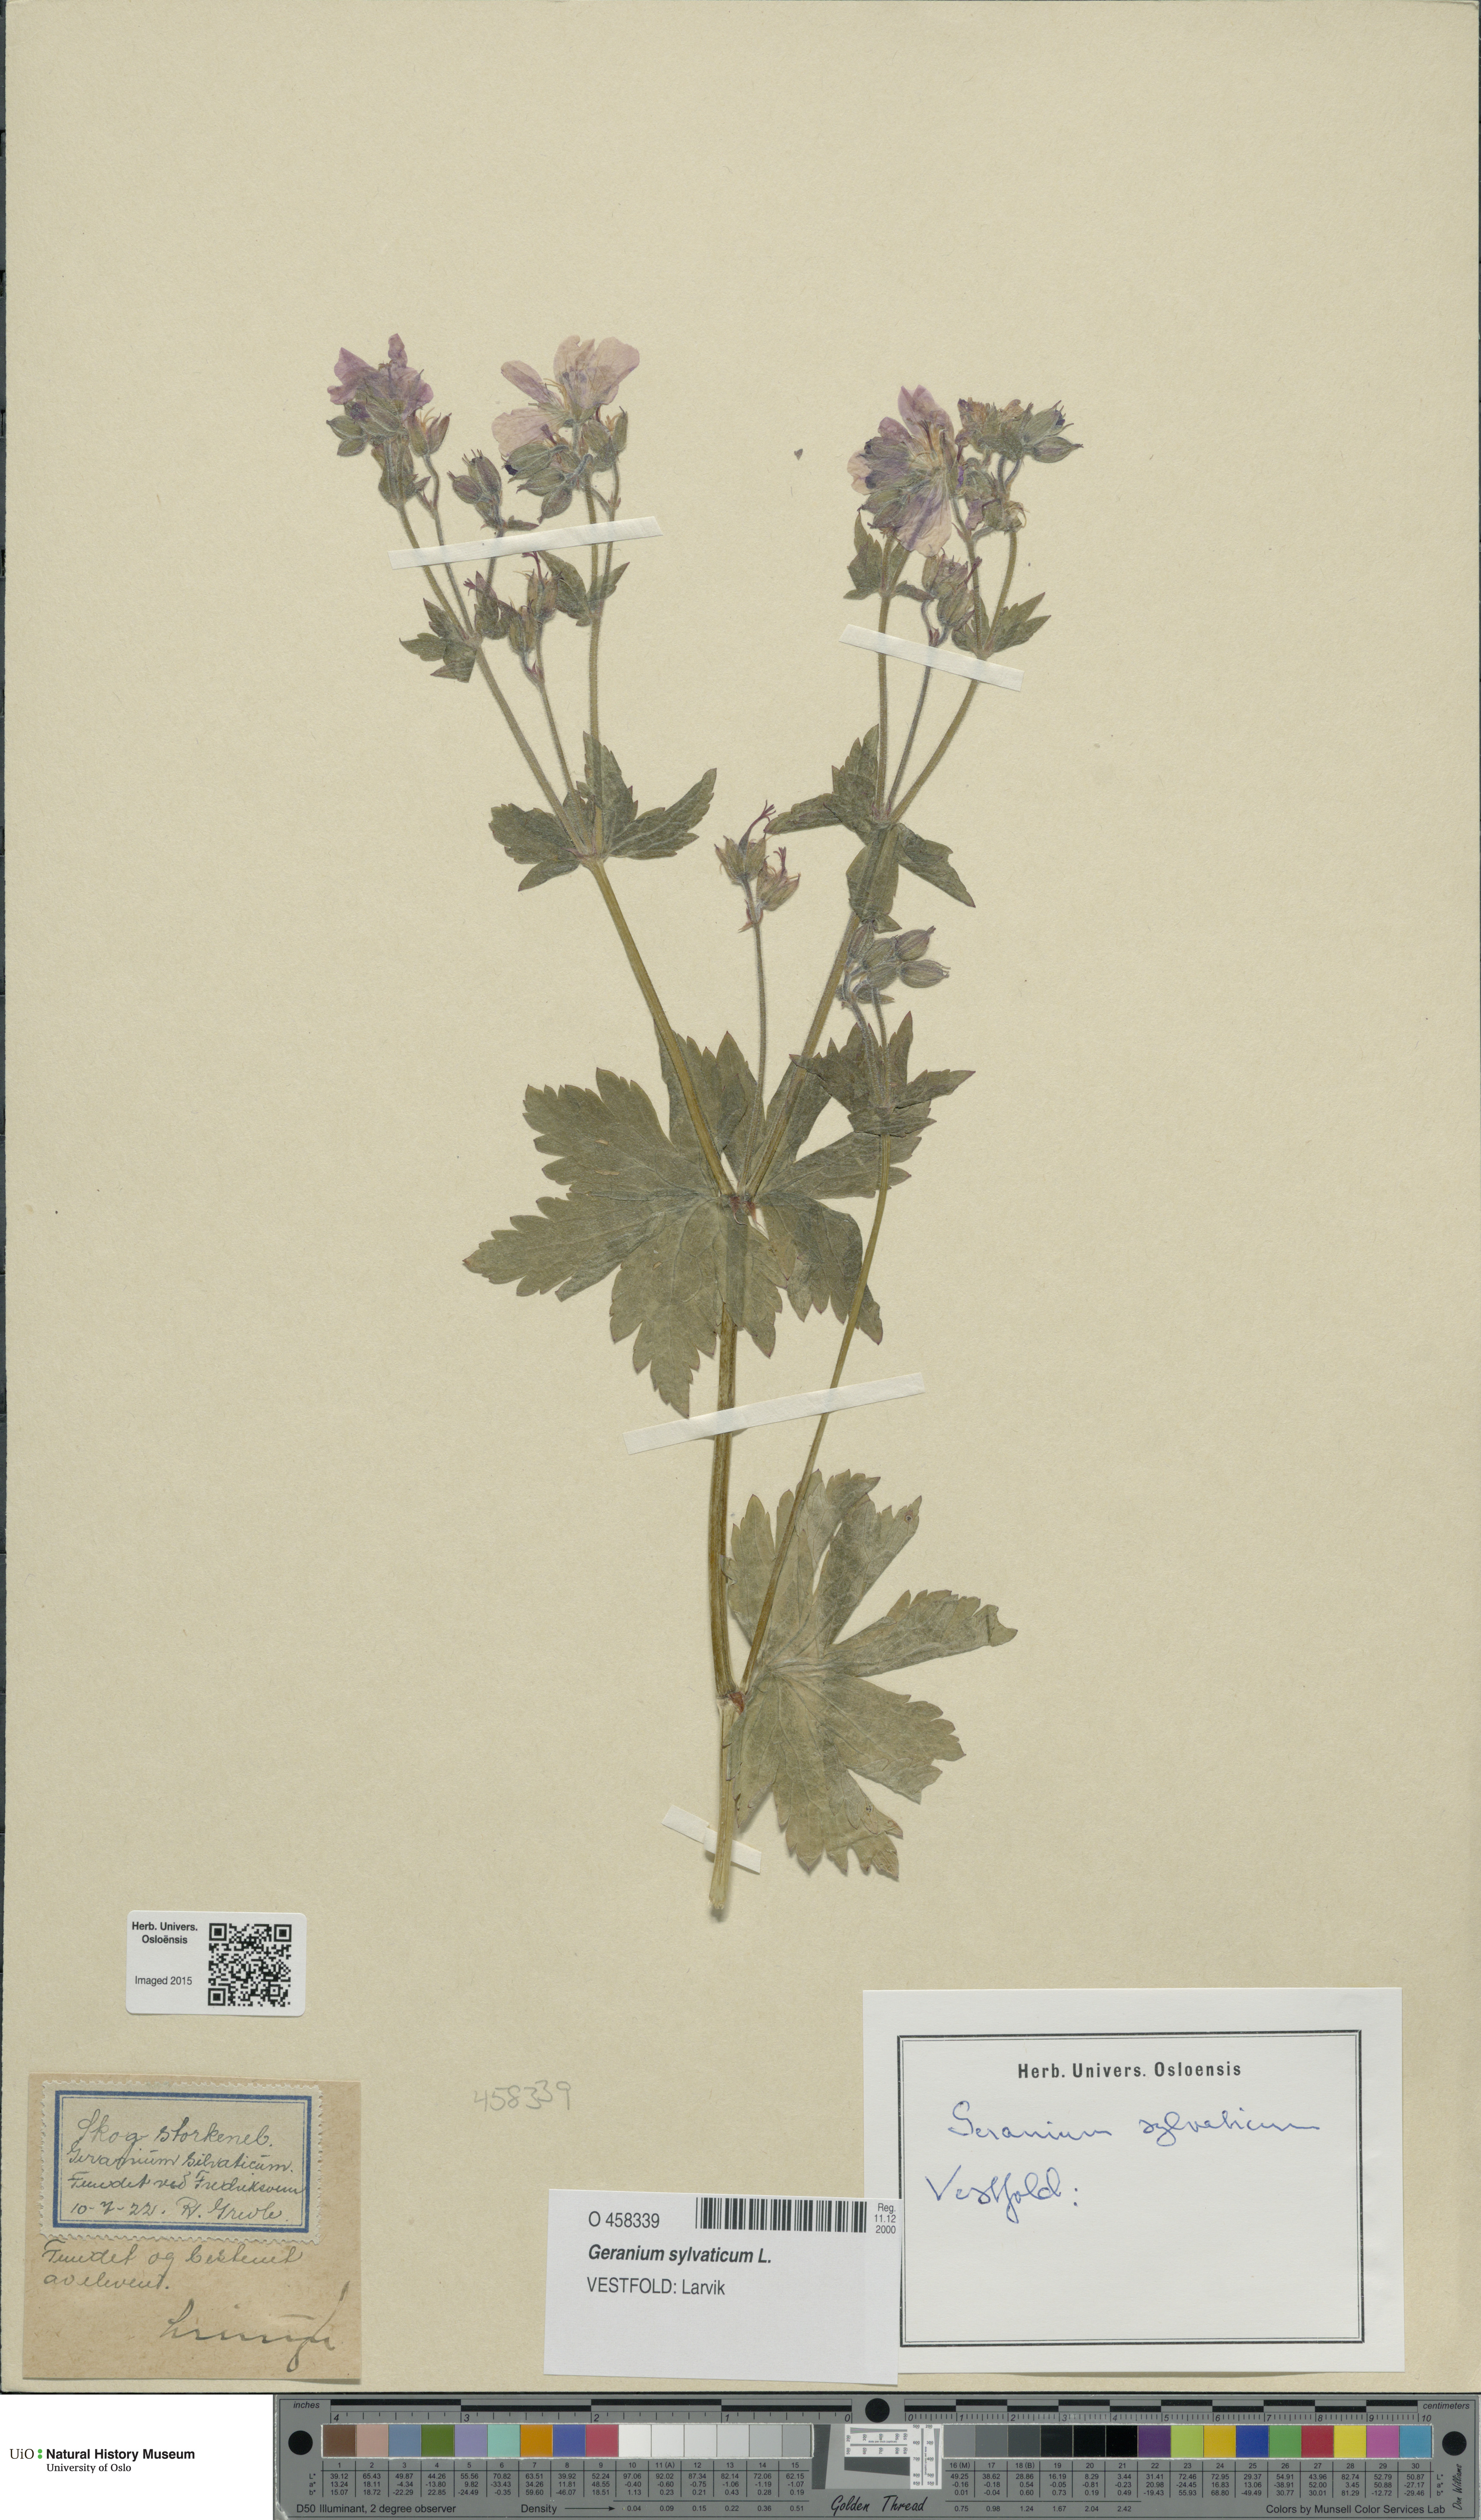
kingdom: Plantae
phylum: Tracheophyta
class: Magnoliopsida
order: Geraniales
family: Geraniaceae
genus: Geranium
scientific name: Geranium sylvaticum
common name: Wood crane's-bill
